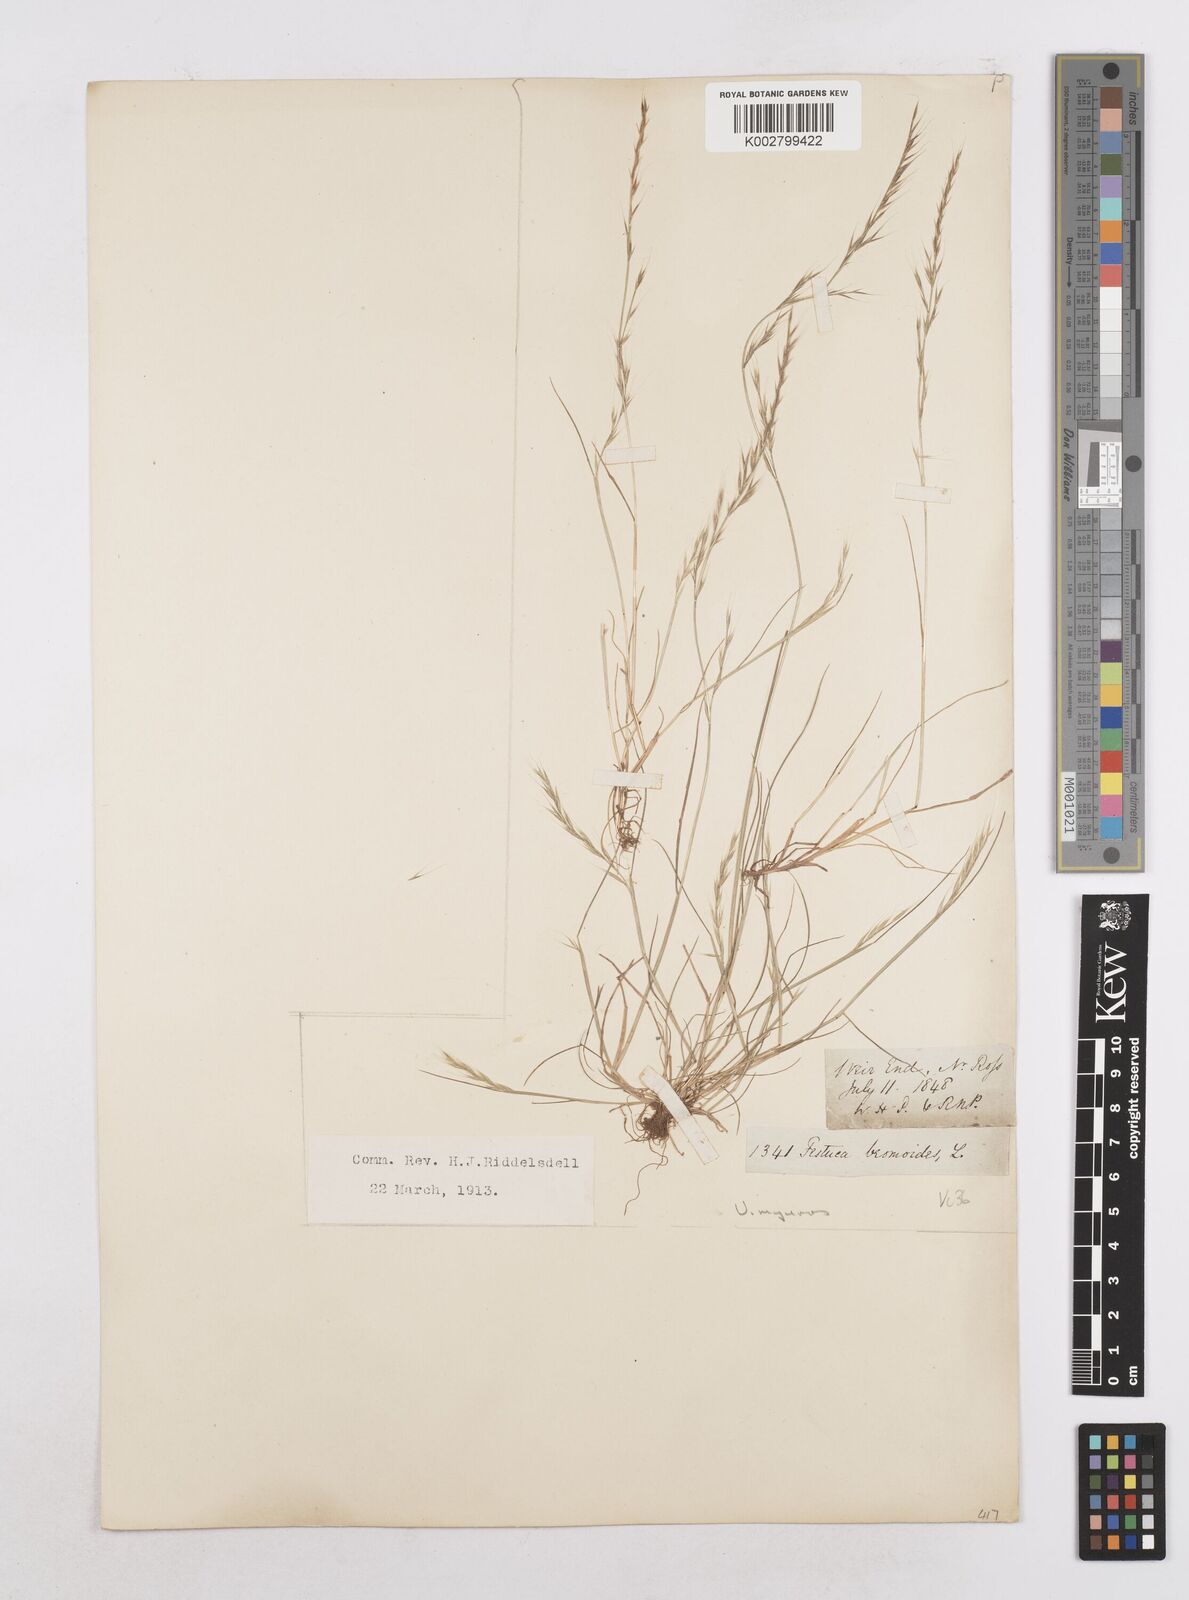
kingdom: Plantae
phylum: Tracheophyta
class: Liliopsida
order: Poales
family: Poaceae
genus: Festuca
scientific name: Festuca myuros
